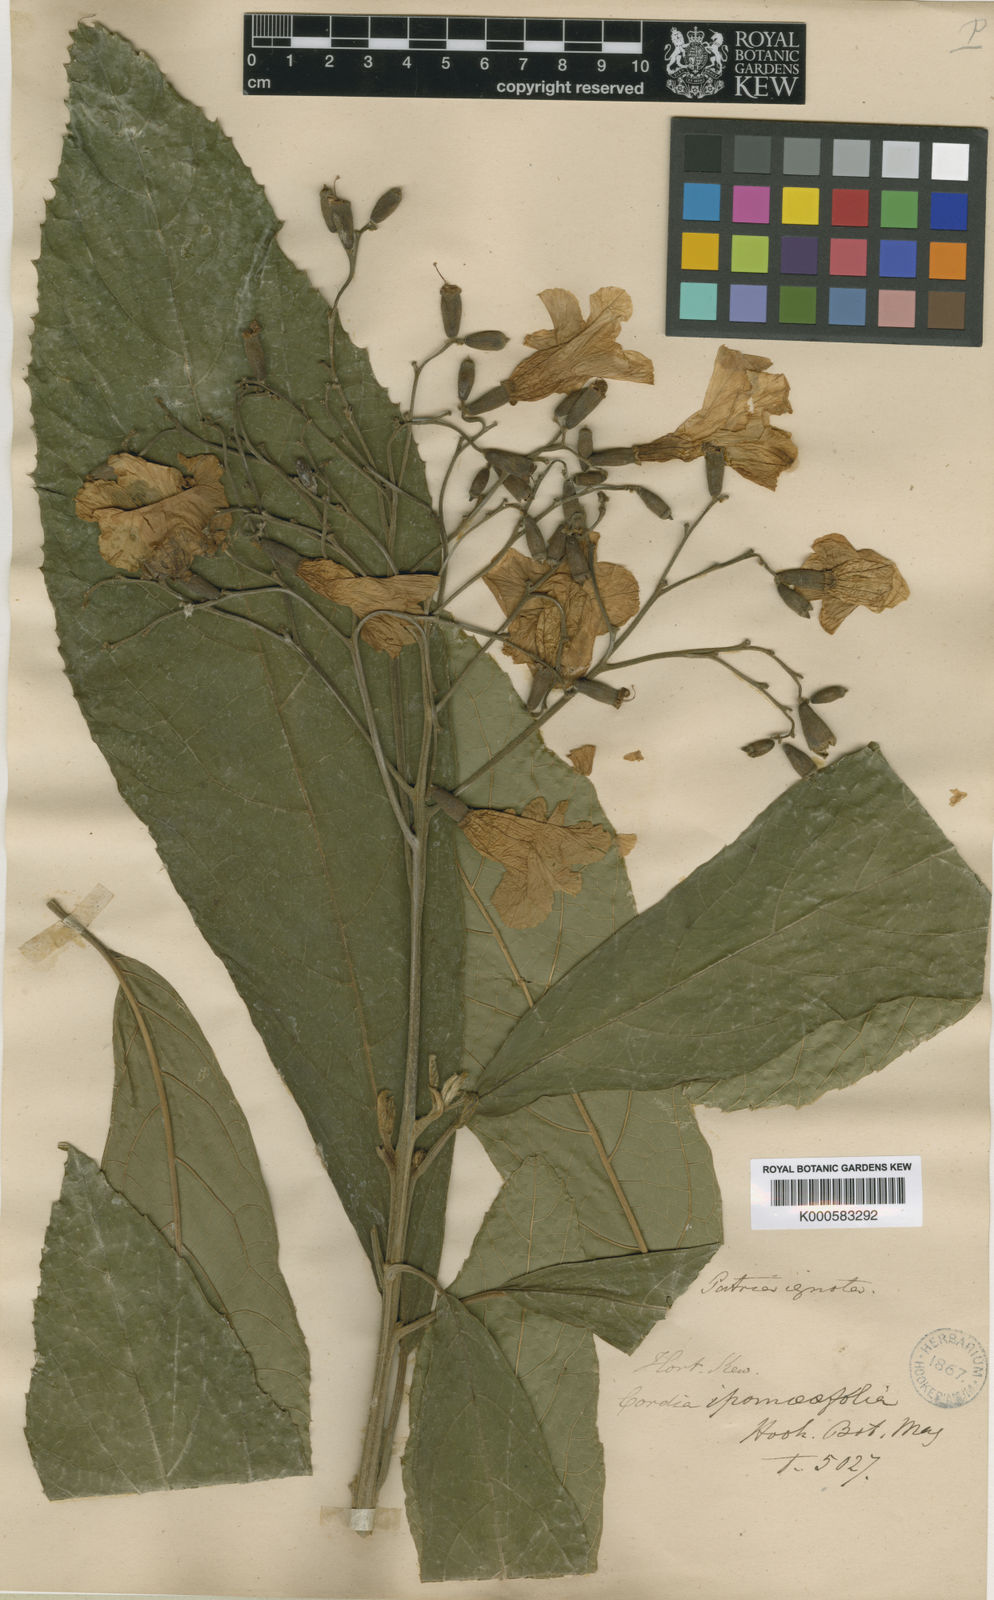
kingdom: Plantae
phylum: Tracheophyta
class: Magnoliopsida
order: Boraginales
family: Cordiaceae
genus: Cordia
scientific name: Cordia superba
